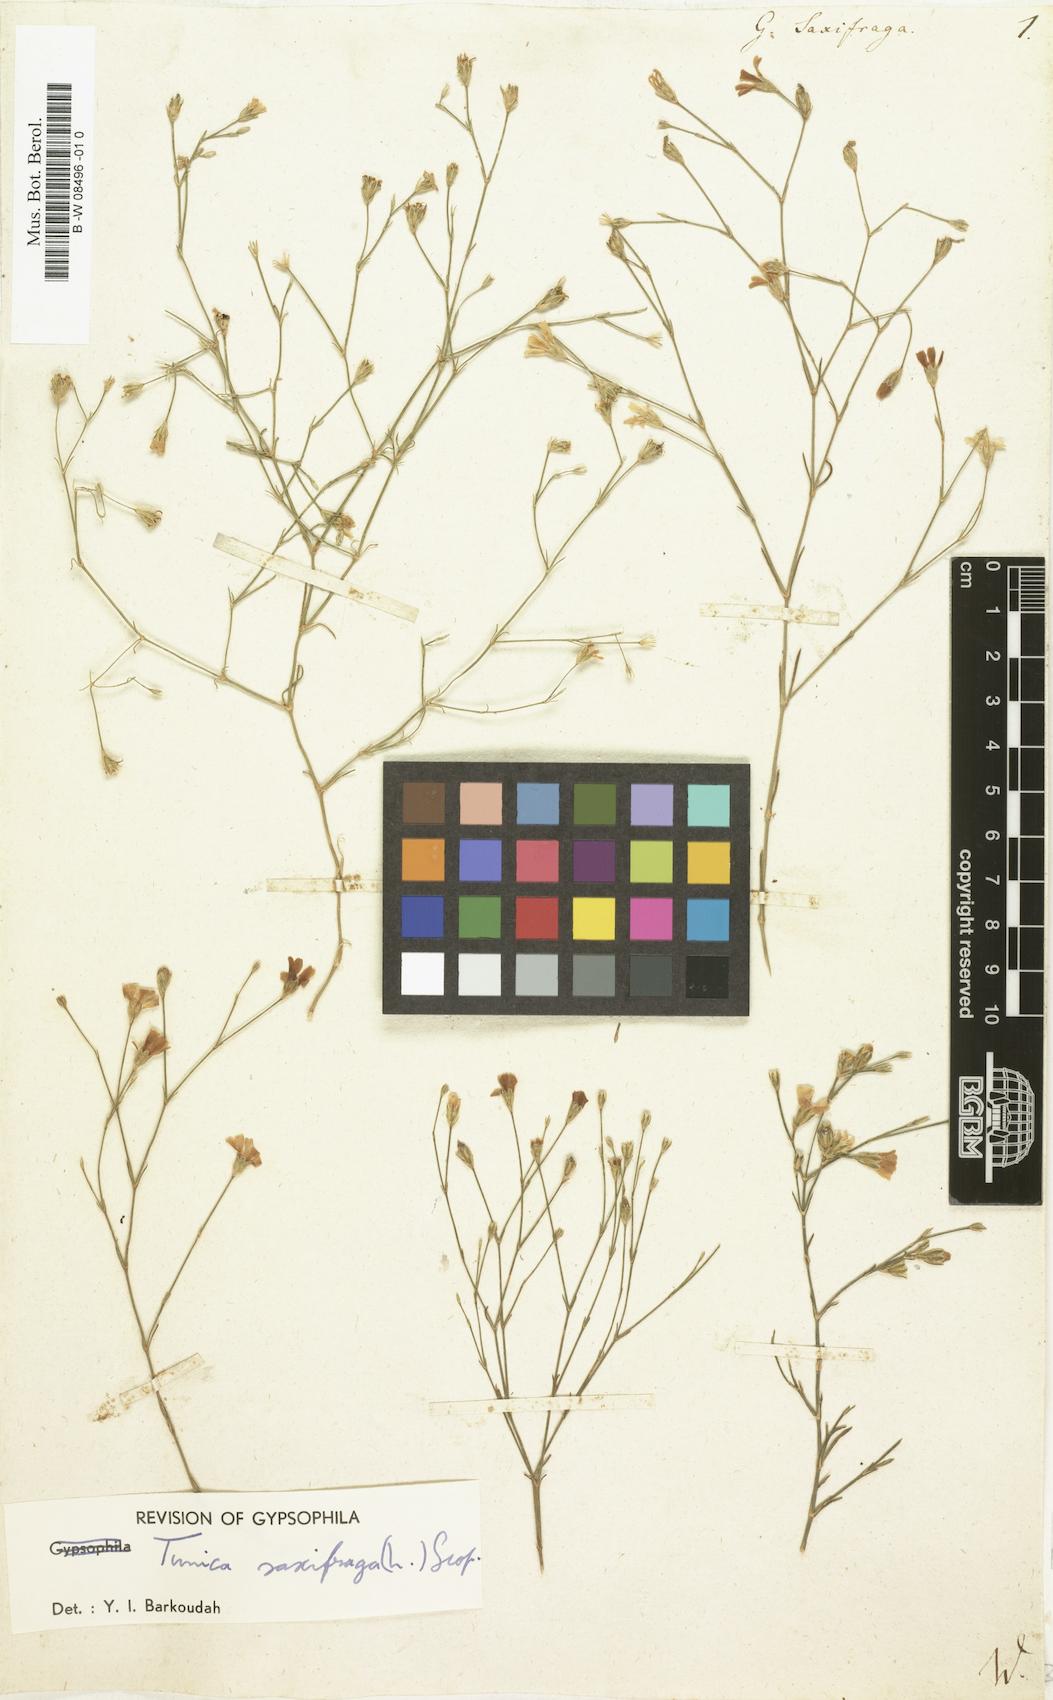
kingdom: Plantae
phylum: Tracheophyta
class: Magnoliopsida
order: Caryophyllales
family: Caryophyllaceae
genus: Petrorhagia
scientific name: Petrorhagia saxifraga
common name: Tunicflower
